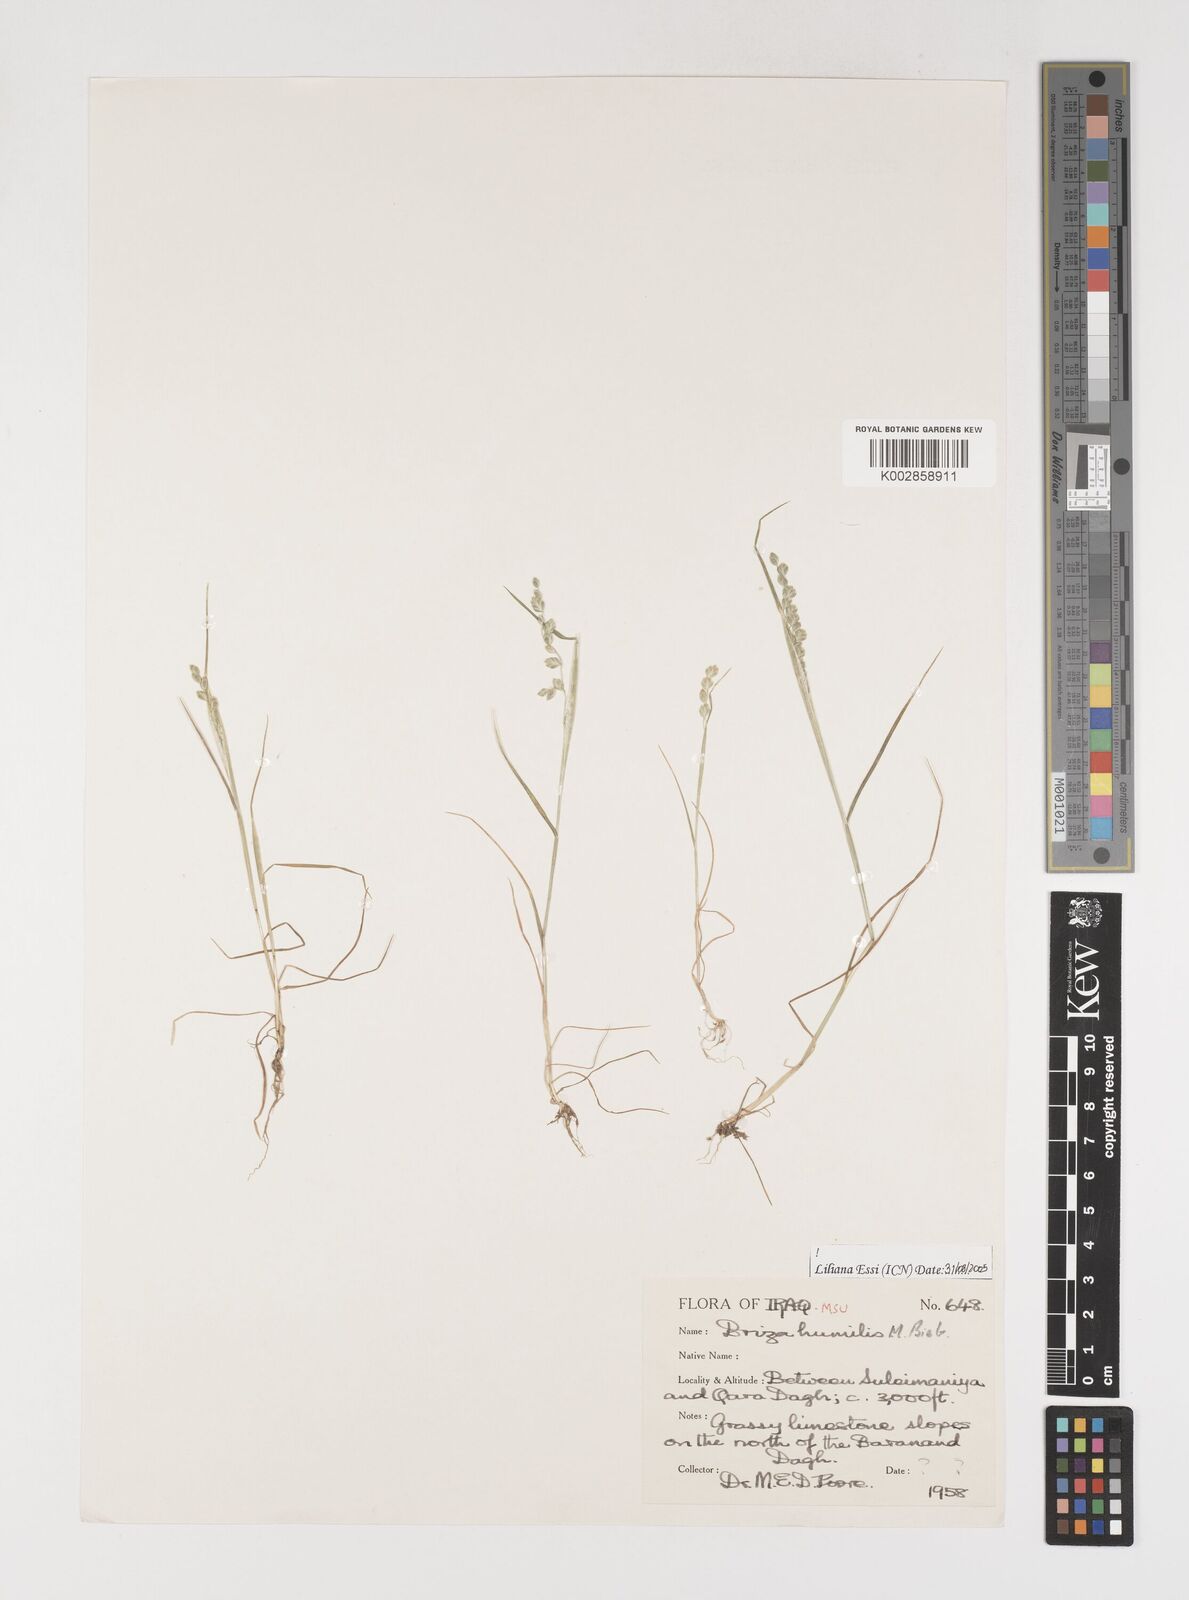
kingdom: Plantae
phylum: Tracheophyta
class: Liliopsida
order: Poales
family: Poaceae
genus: Briza
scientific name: Briza humilis
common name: Spiked quaking grass
